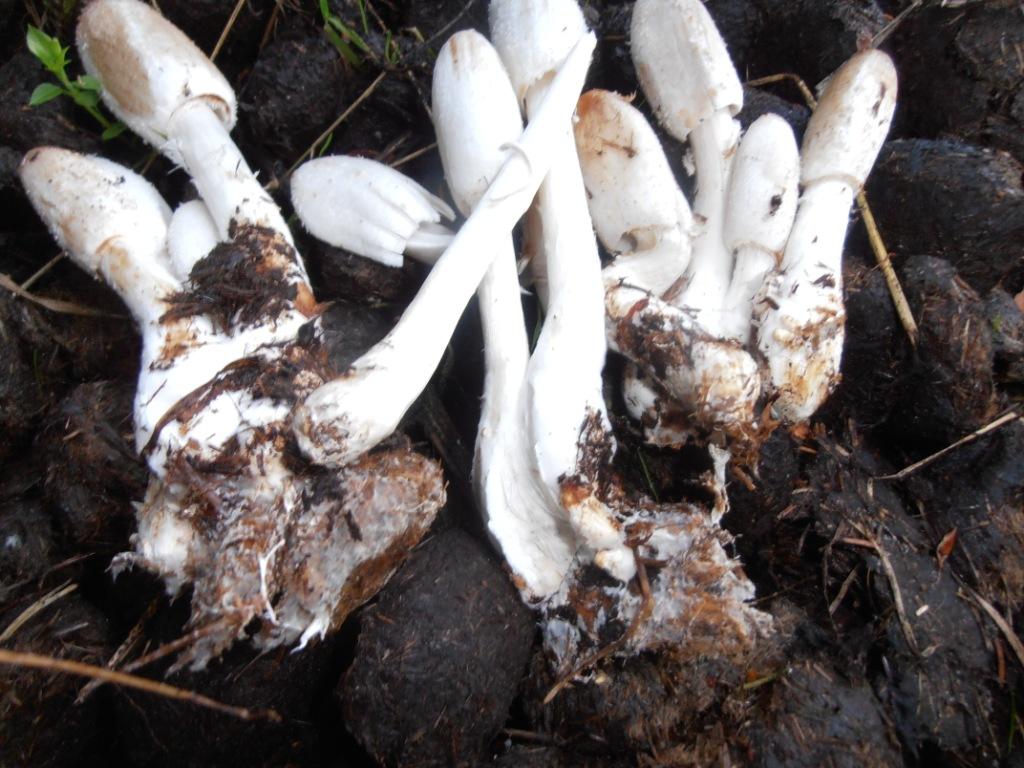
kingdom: Fungi
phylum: Basidiomycota
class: Agaricomycetes
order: Agaricales
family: Agaricaceae
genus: Coprinus
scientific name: Coprinus sterquilinus
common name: møg-parykhat
